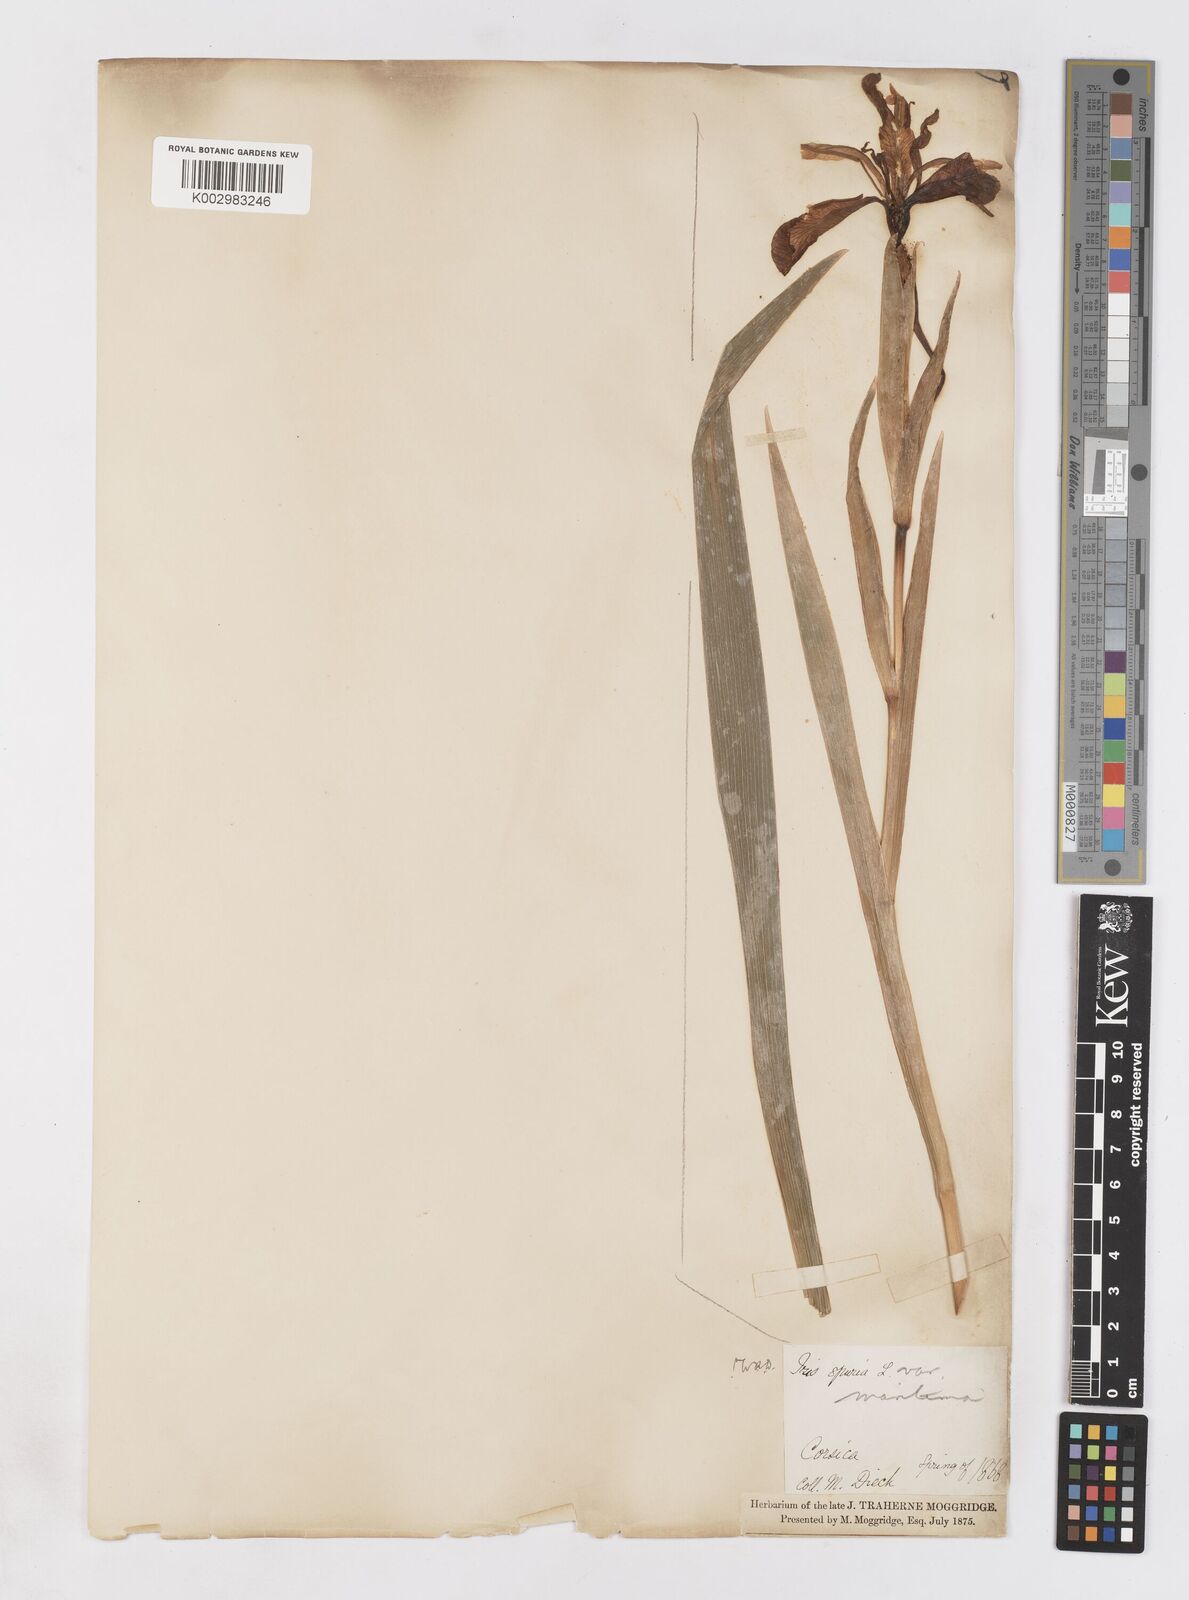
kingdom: Plantae
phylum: Tracheophyta
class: Liliopsida
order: Asparagales
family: Iridaceae
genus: Iris
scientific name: Iris spuria
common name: Blue iris
